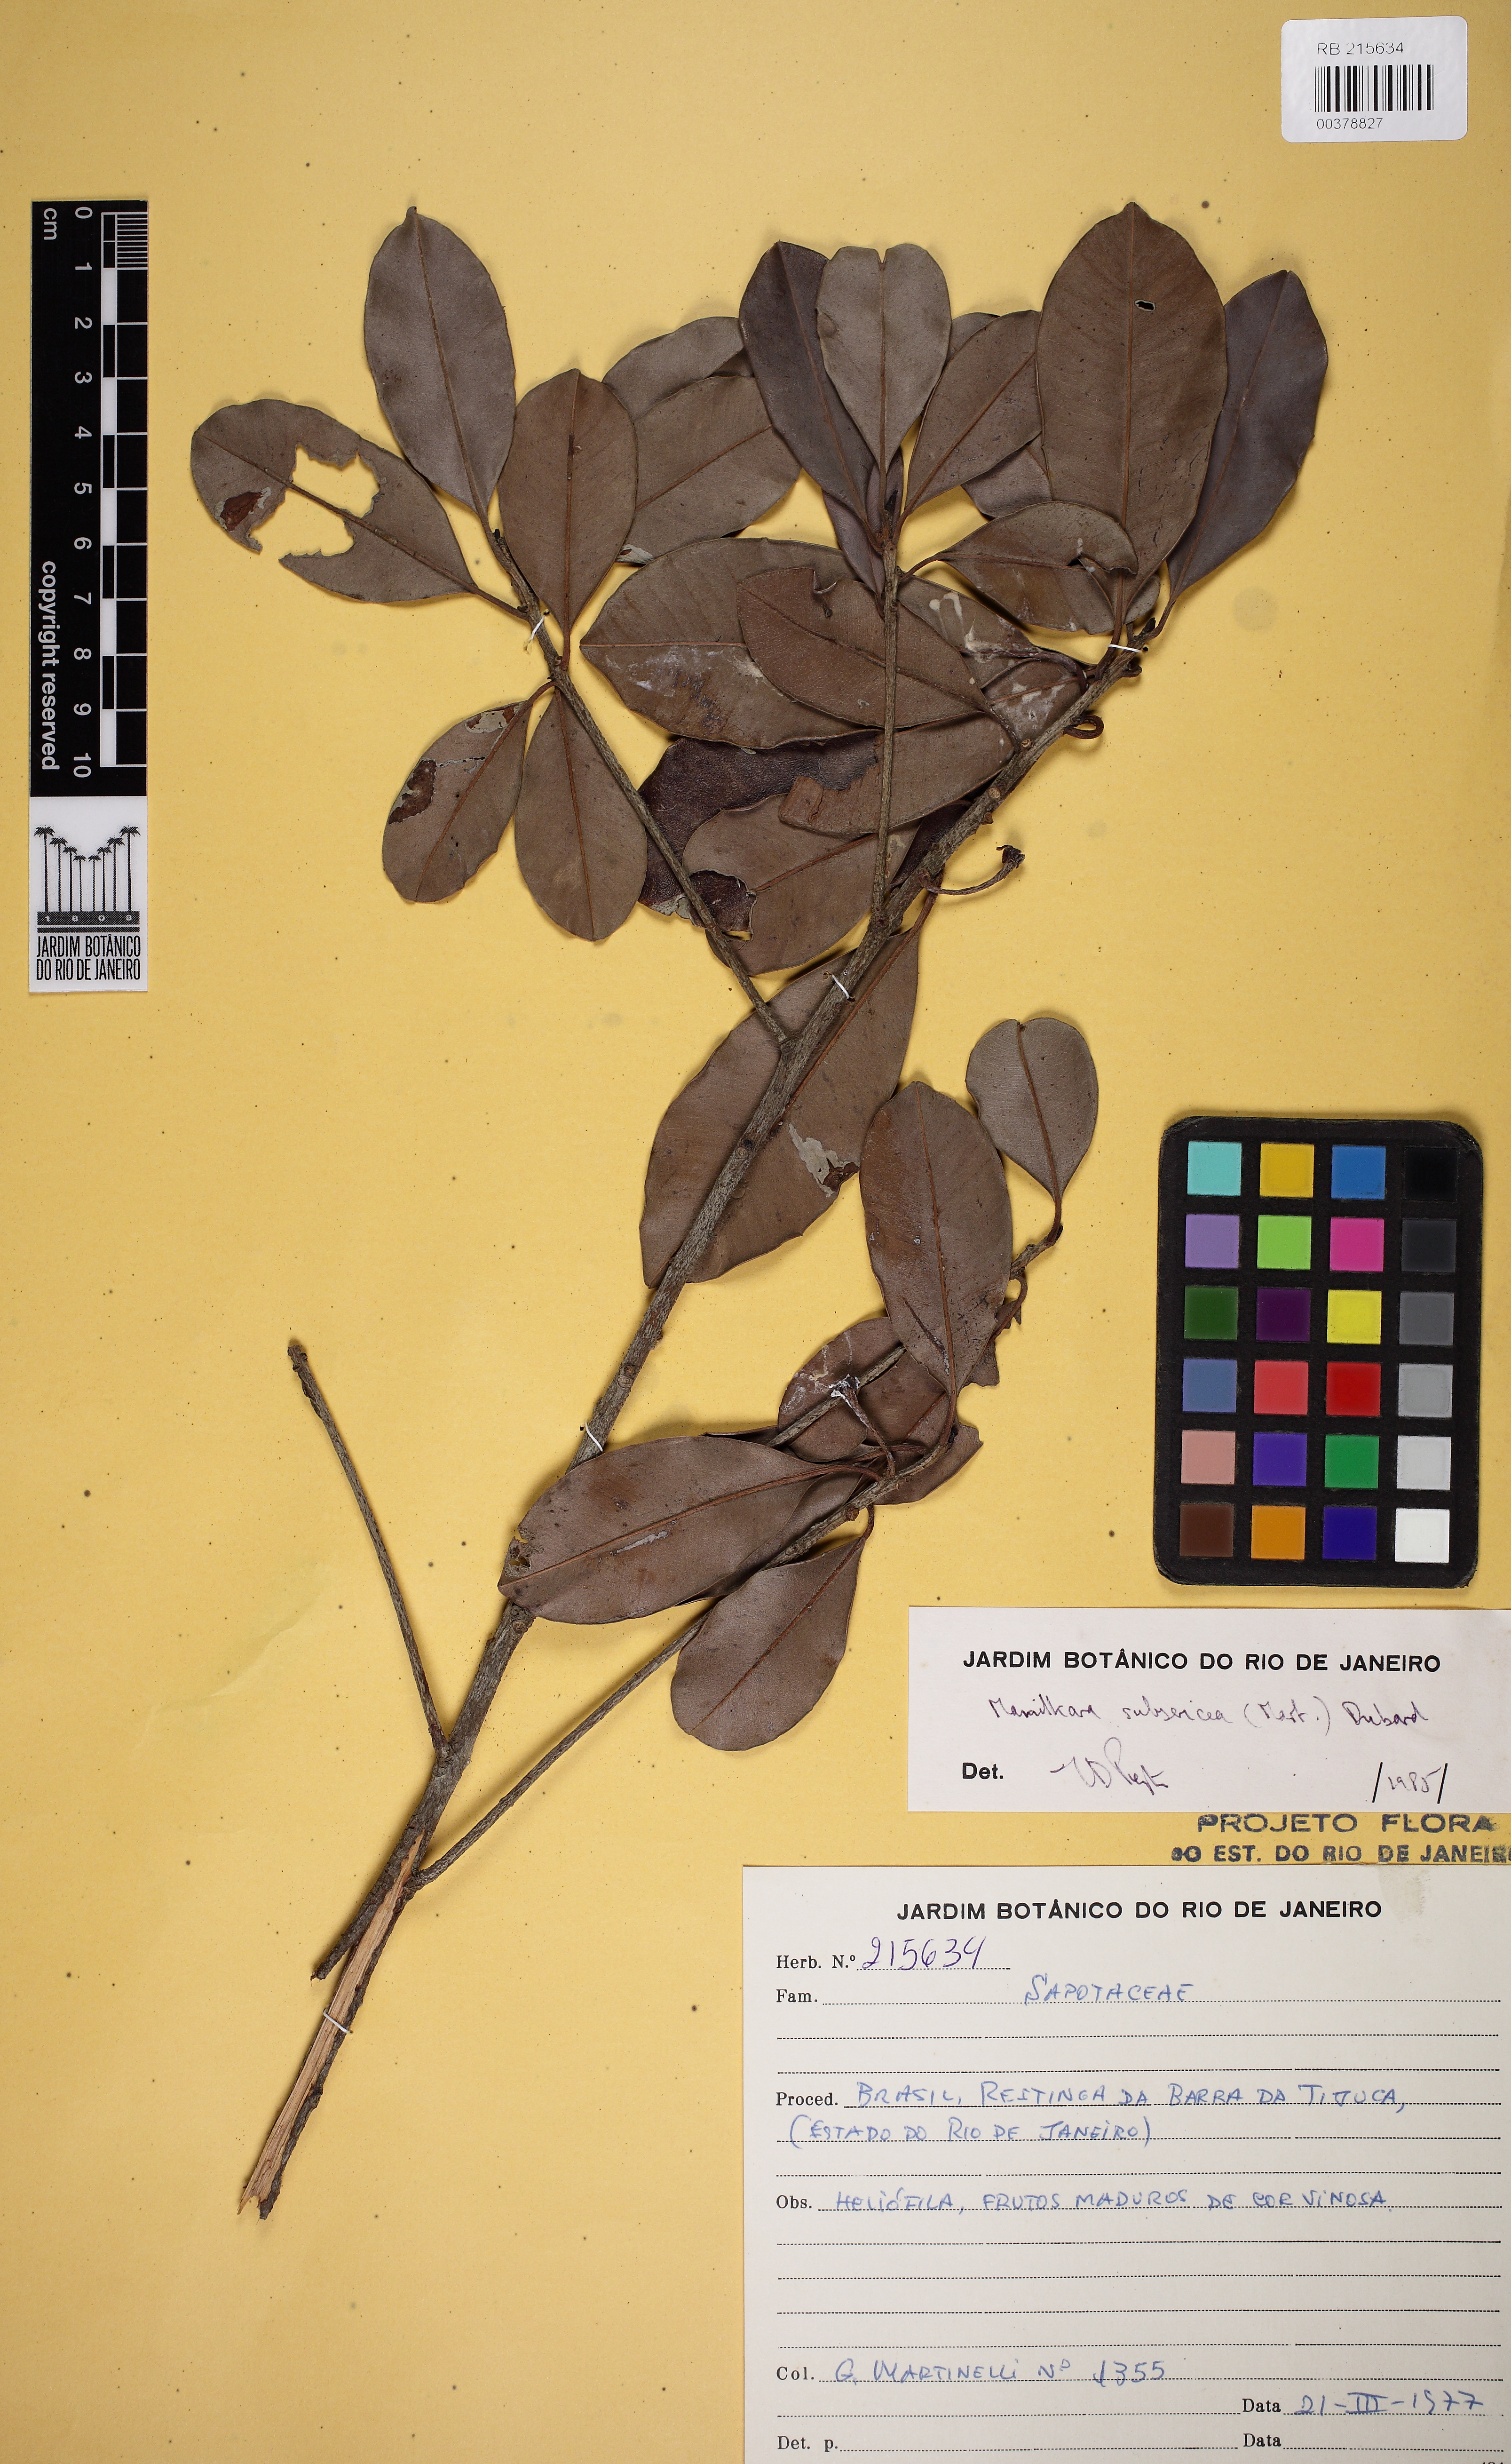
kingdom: Plantae
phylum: Tracheophyta
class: Magnoliopsida
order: Ericales
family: Sapotaceae
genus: Manilkara
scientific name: Manilkara subsericea
